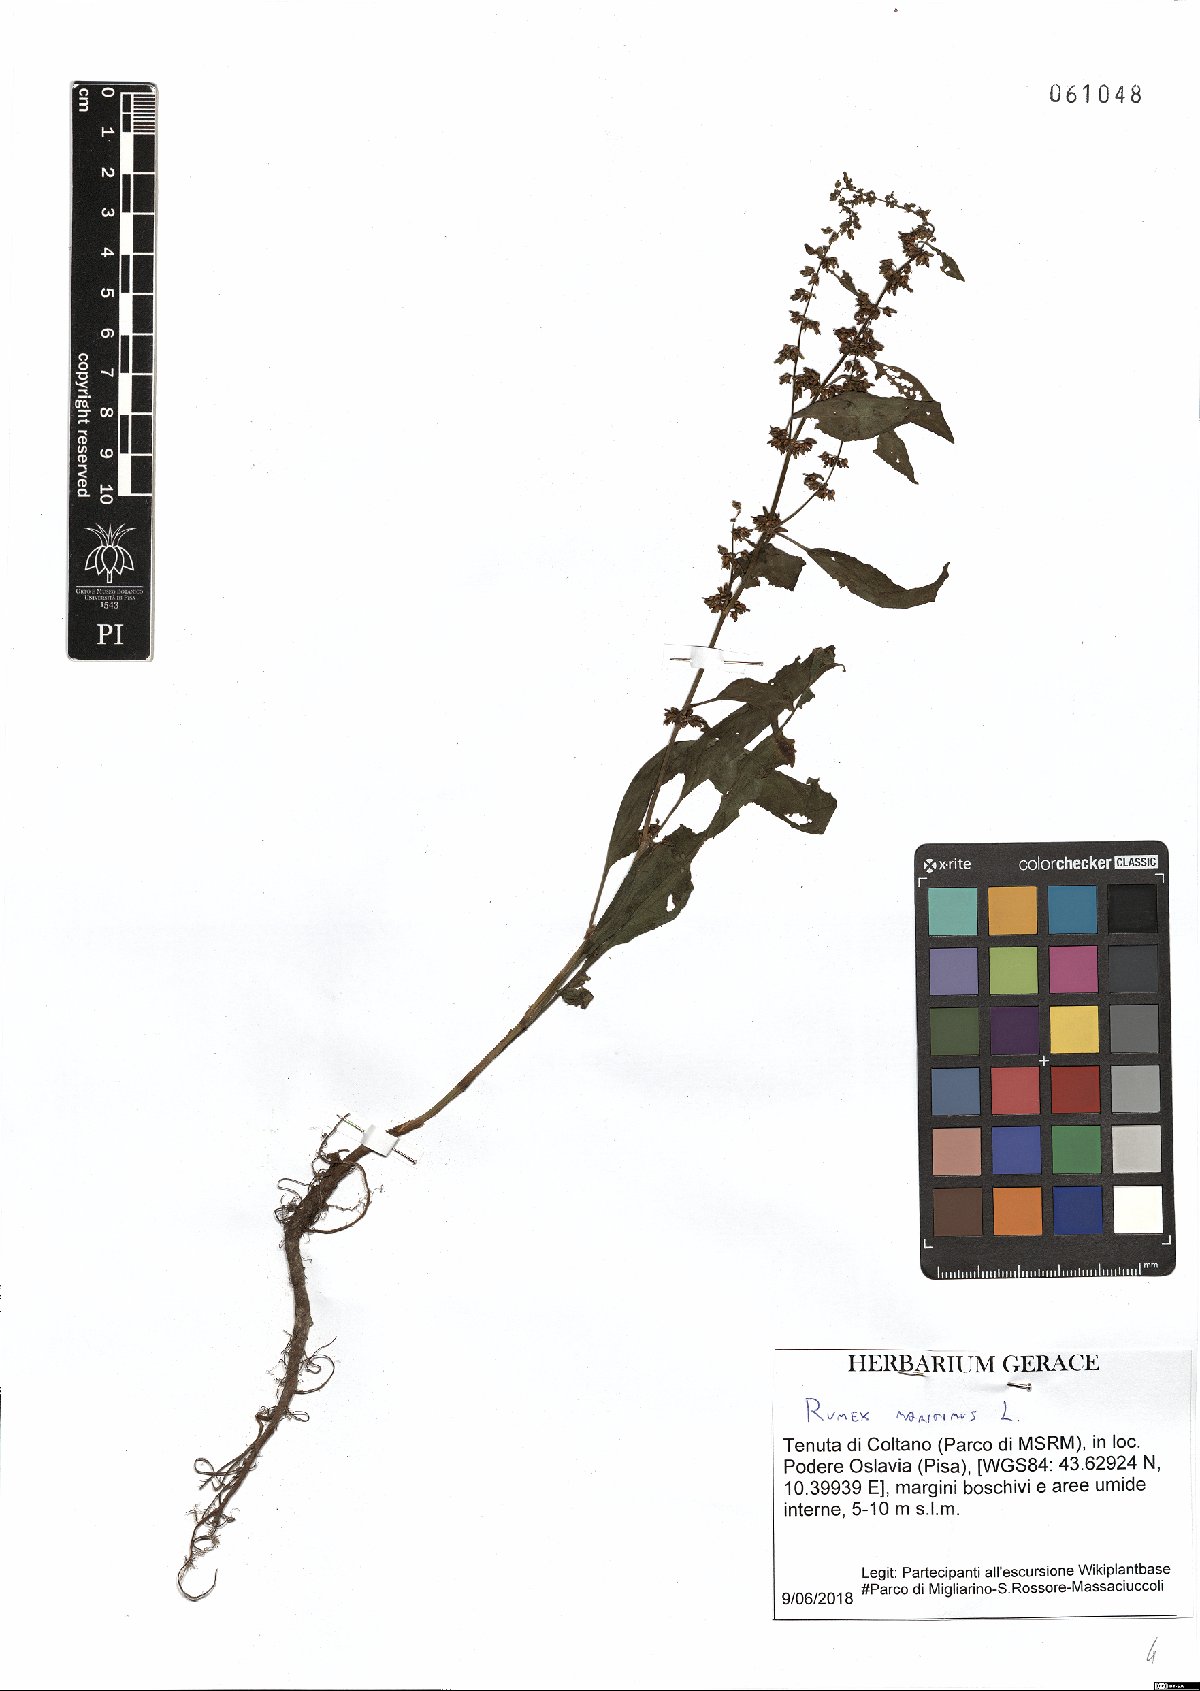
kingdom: Plantae
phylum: Tracheophyta
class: Magnoliopsida
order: Caryophyllales
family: Polygonaceae
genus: Rumex
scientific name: Rumex maritimus
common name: Golden dock
